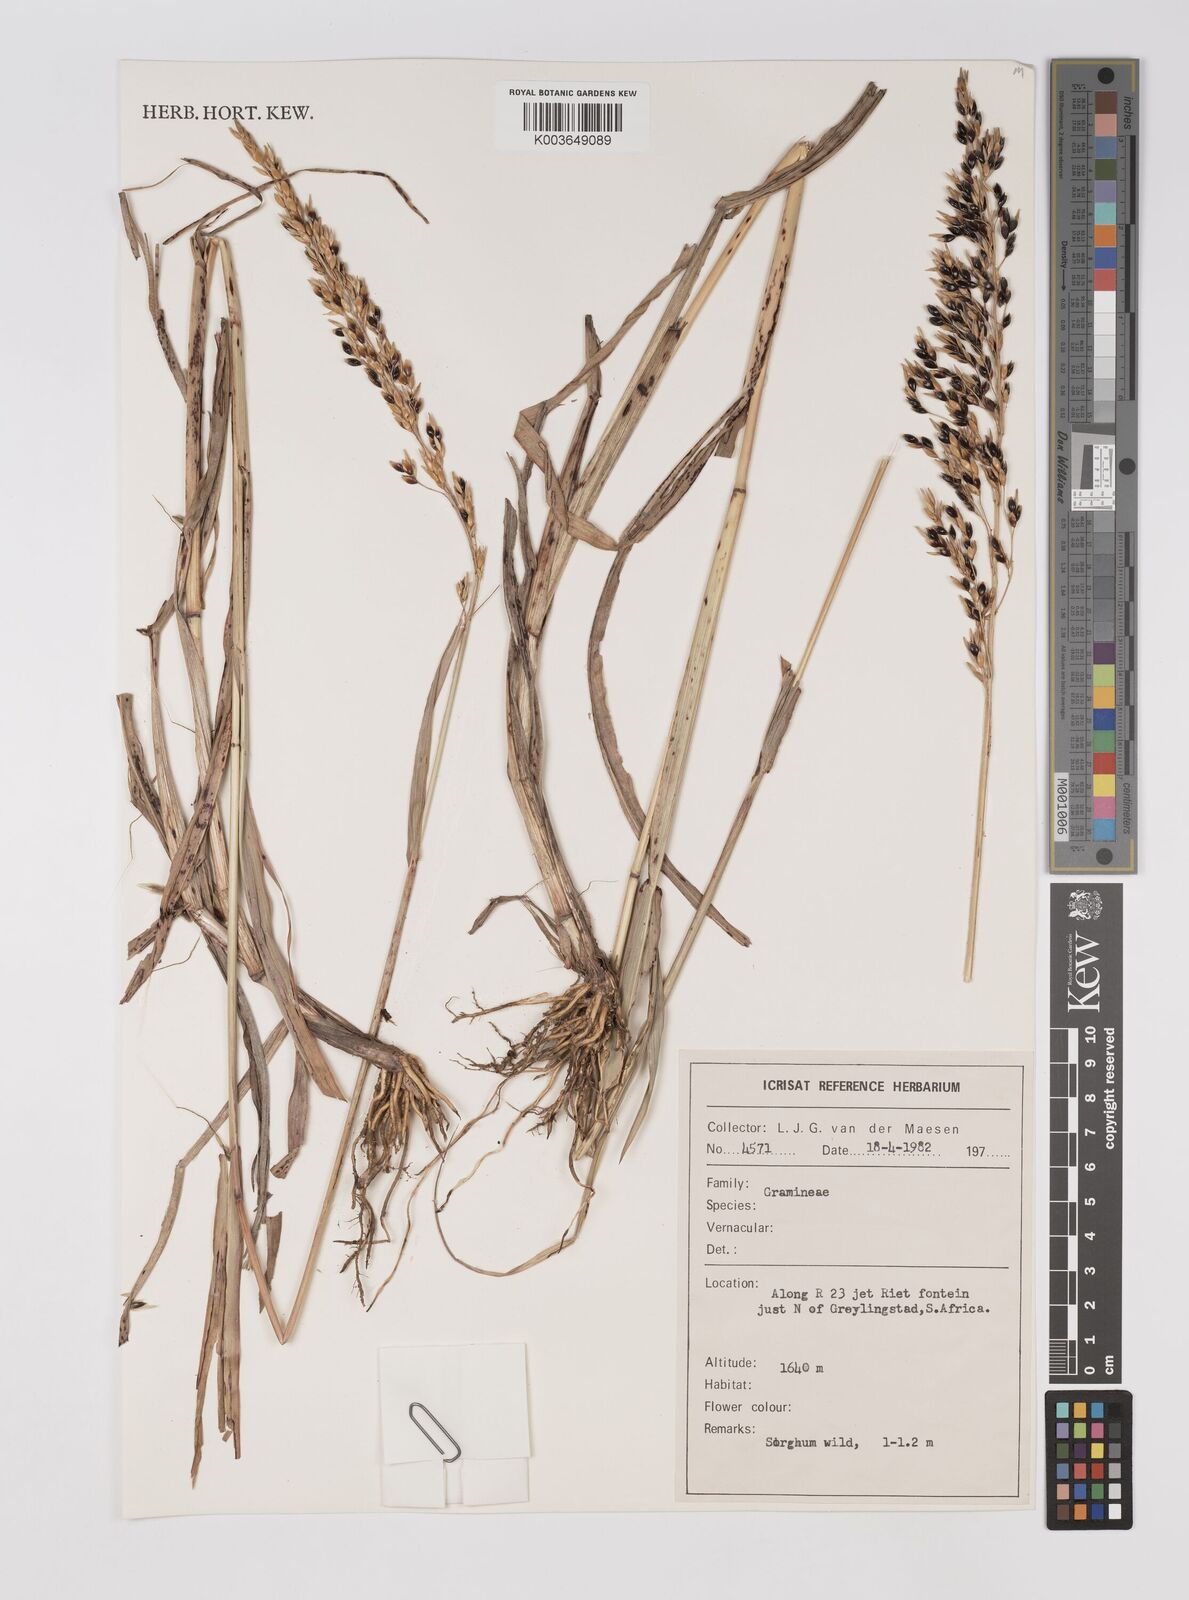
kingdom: Plantae
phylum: Tracheophyta
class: Liliopsida
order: Poales
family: Poaceae
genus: Sarga
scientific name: Sarga versicolor
